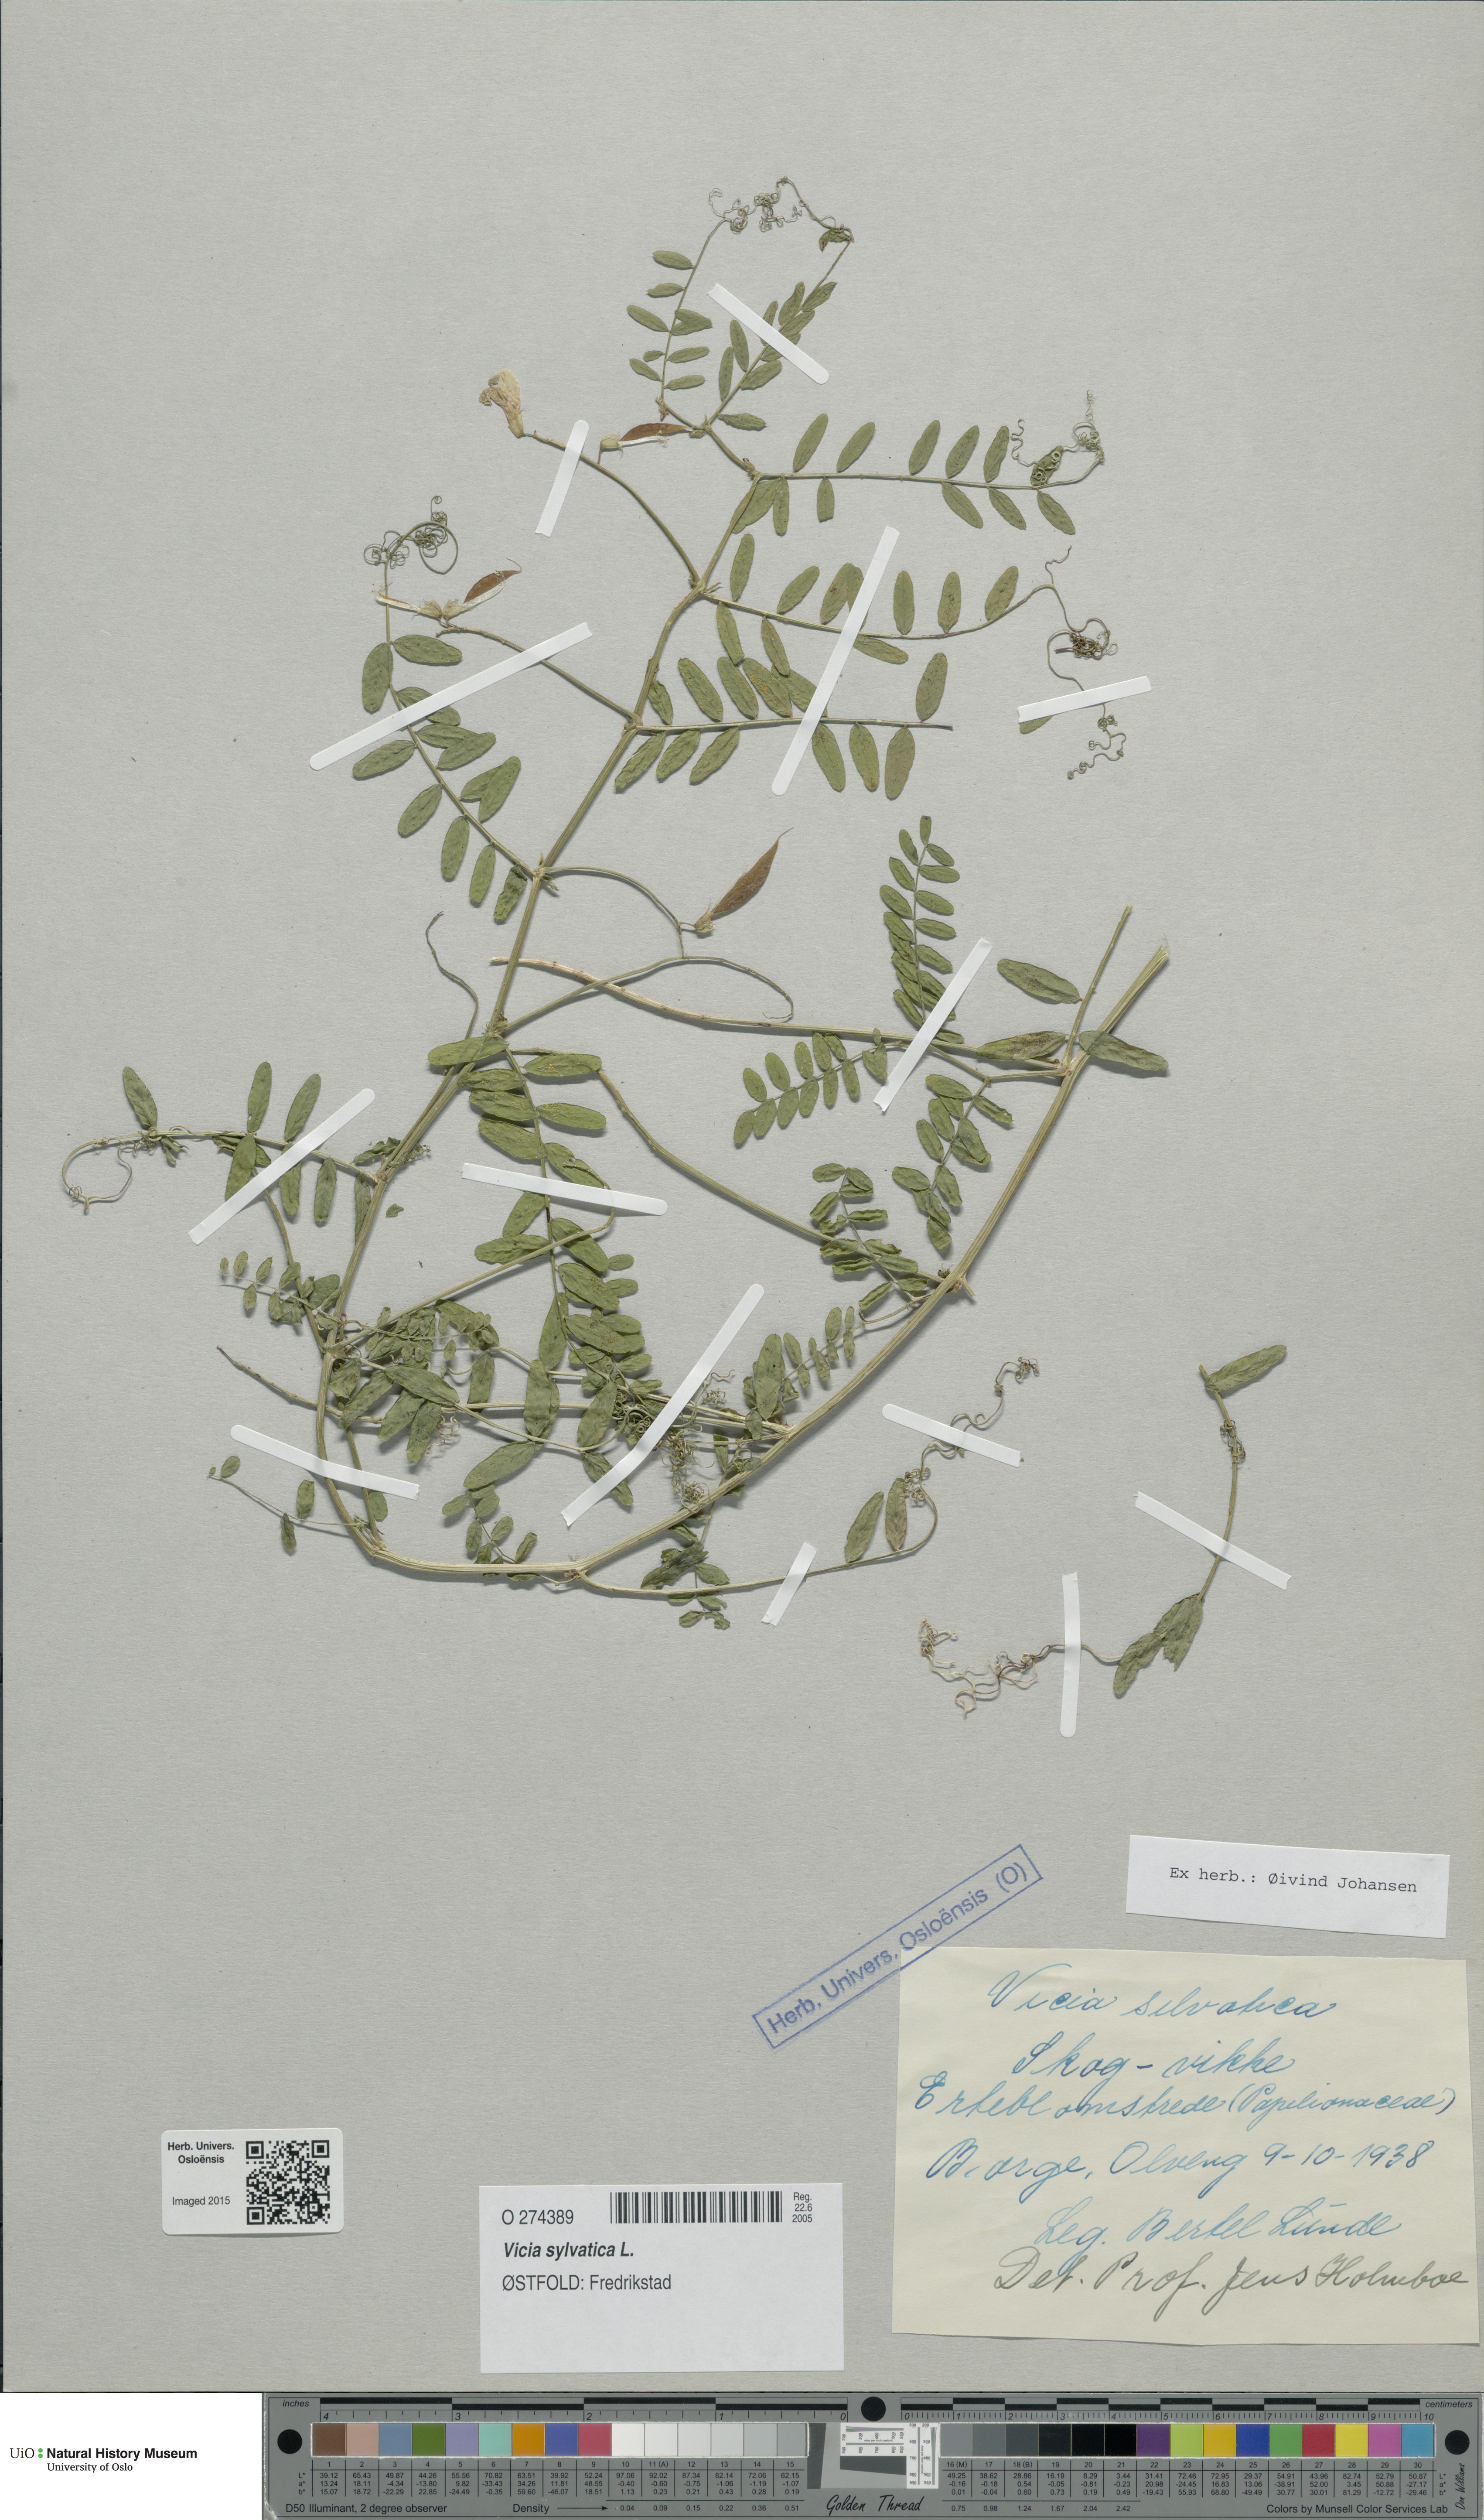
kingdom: Plantae
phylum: Tracheophyta
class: Magnoliopsida
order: Fabales
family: Fabaceae
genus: Vicia
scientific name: Vicia sylvatica
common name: Wood vetch
